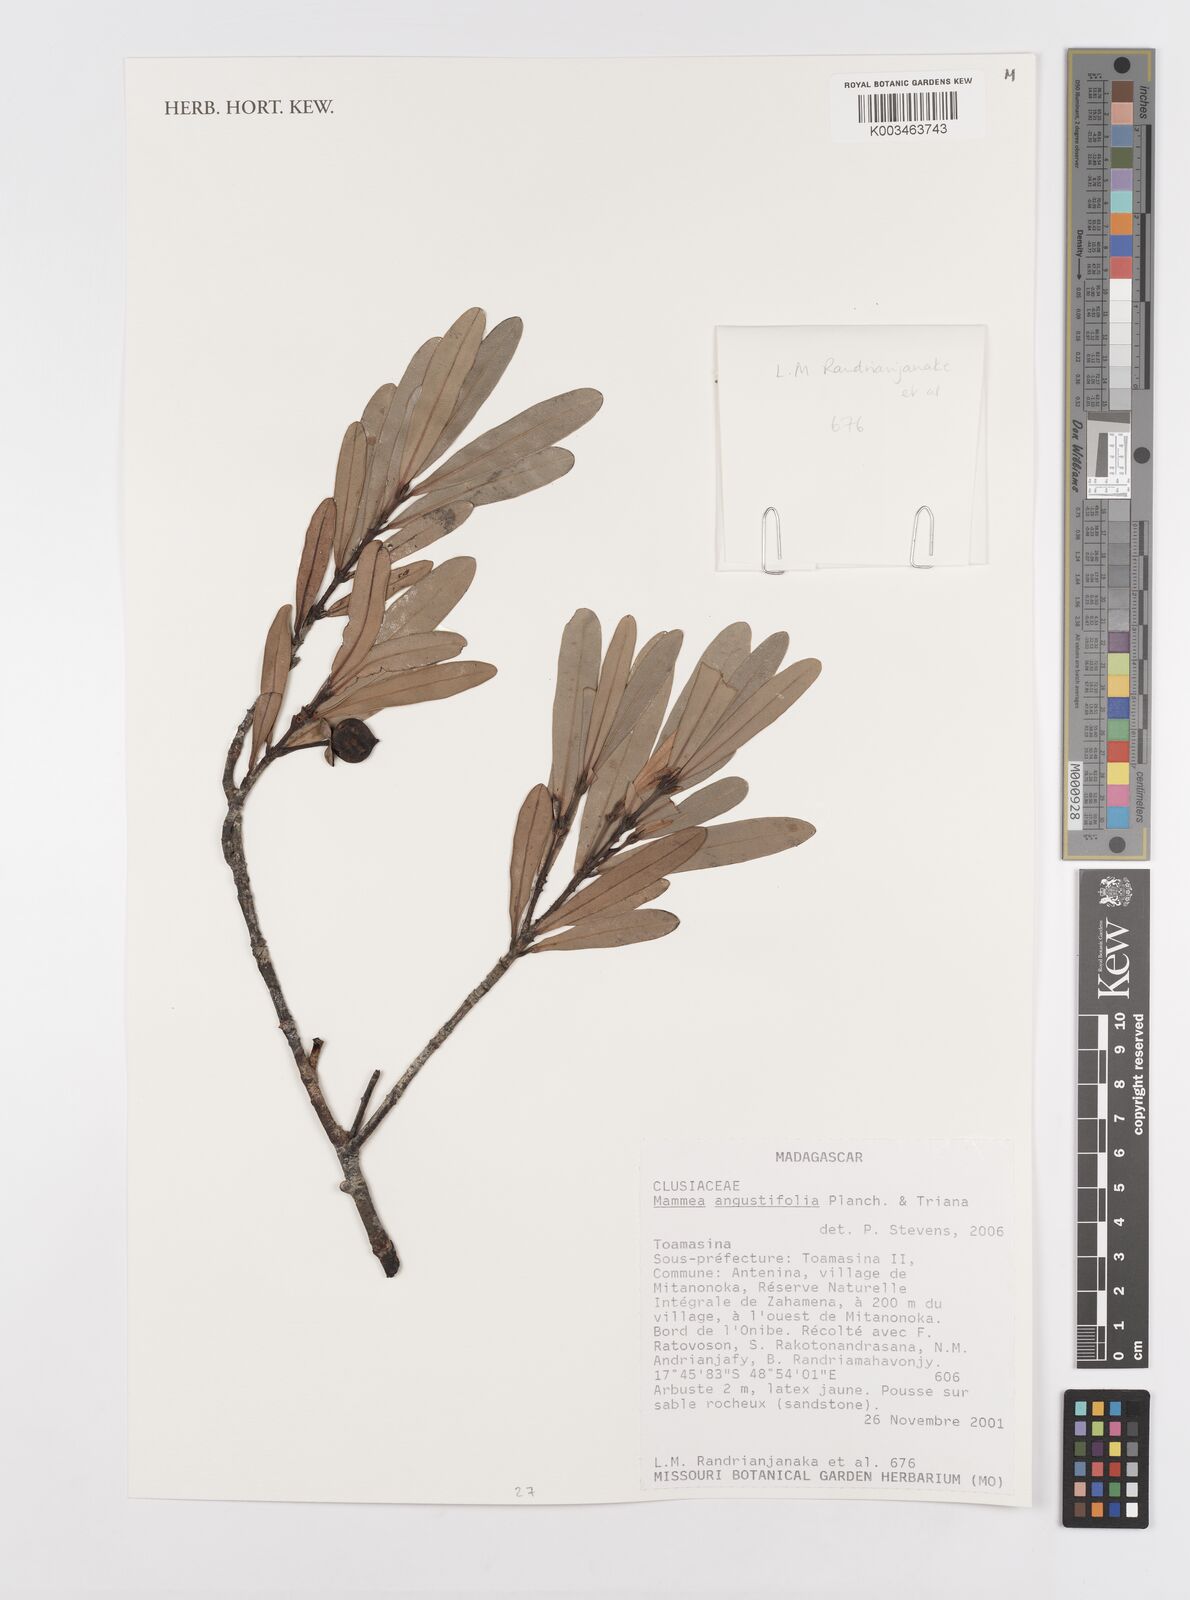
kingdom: Plantae
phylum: Tracheophyta
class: Magnoliopsida
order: Malpighiales
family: Calophyllaceae
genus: Mammea
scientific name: Mammea angustifolia
